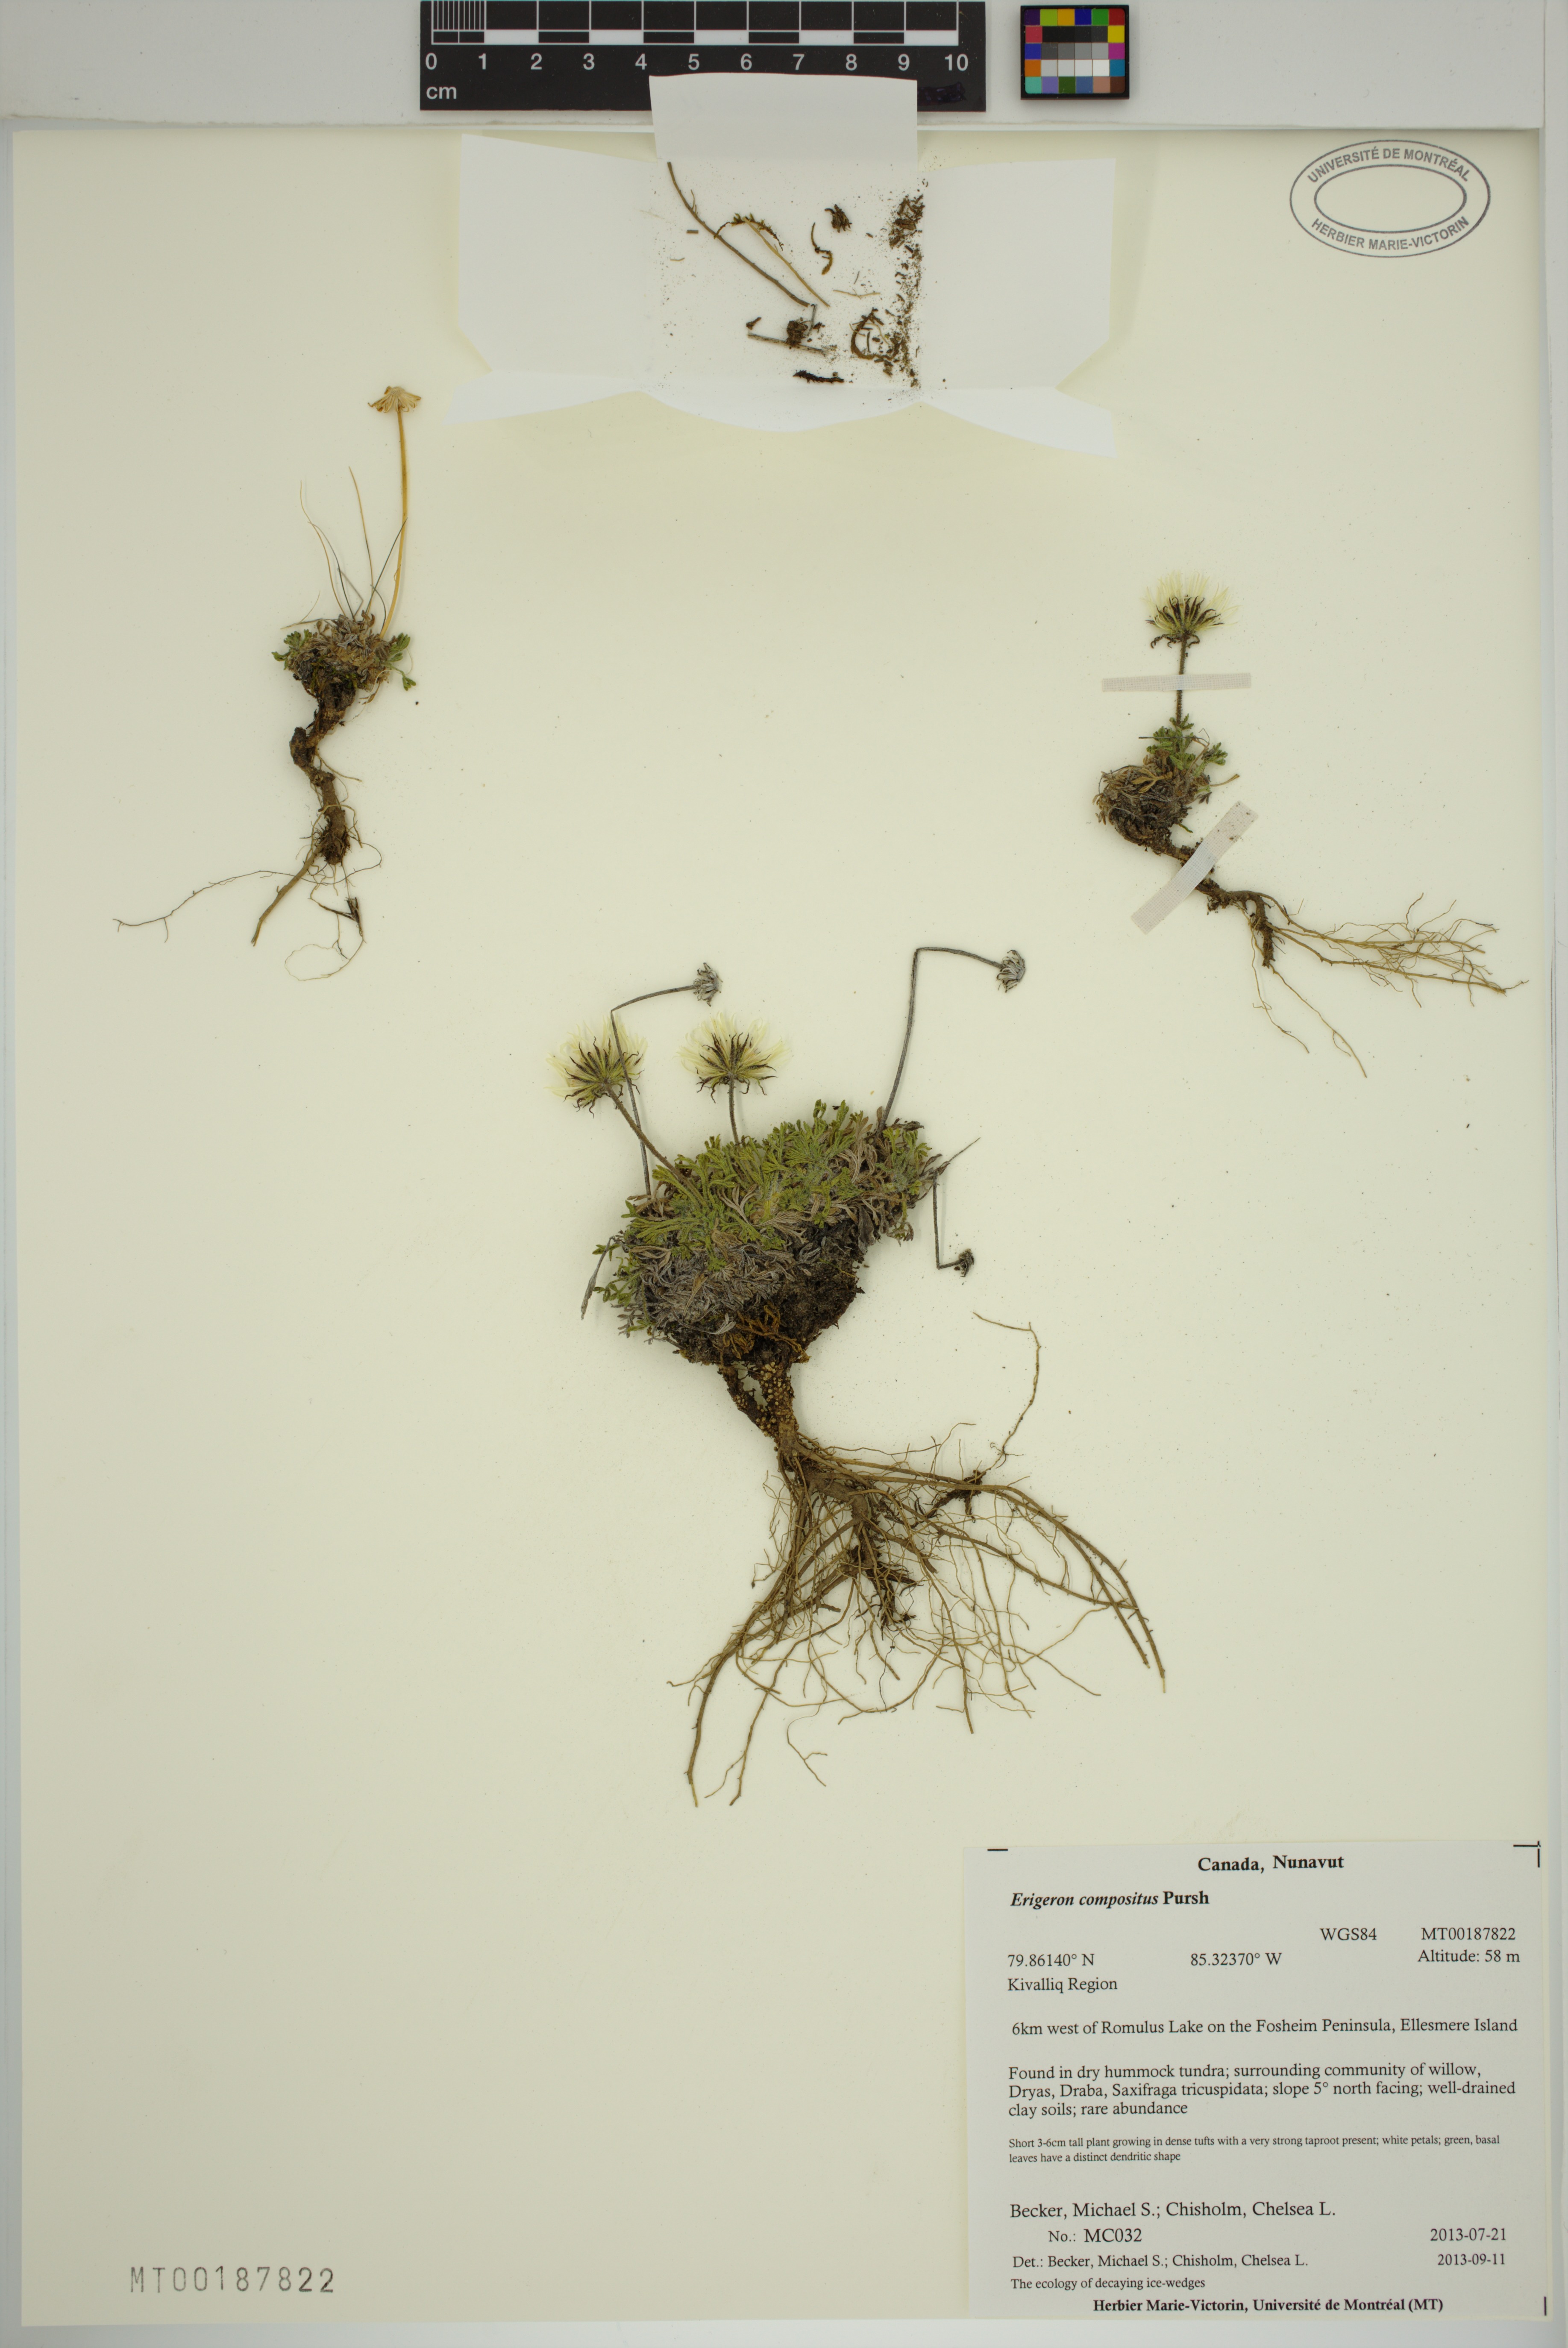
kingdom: Plantae
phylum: Tracheophyta
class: Magnoliopsida
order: Asterales
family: Asteraceae
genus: Erigeron
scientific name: Erigeron compositus
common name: Dwarf mountain fleabane
